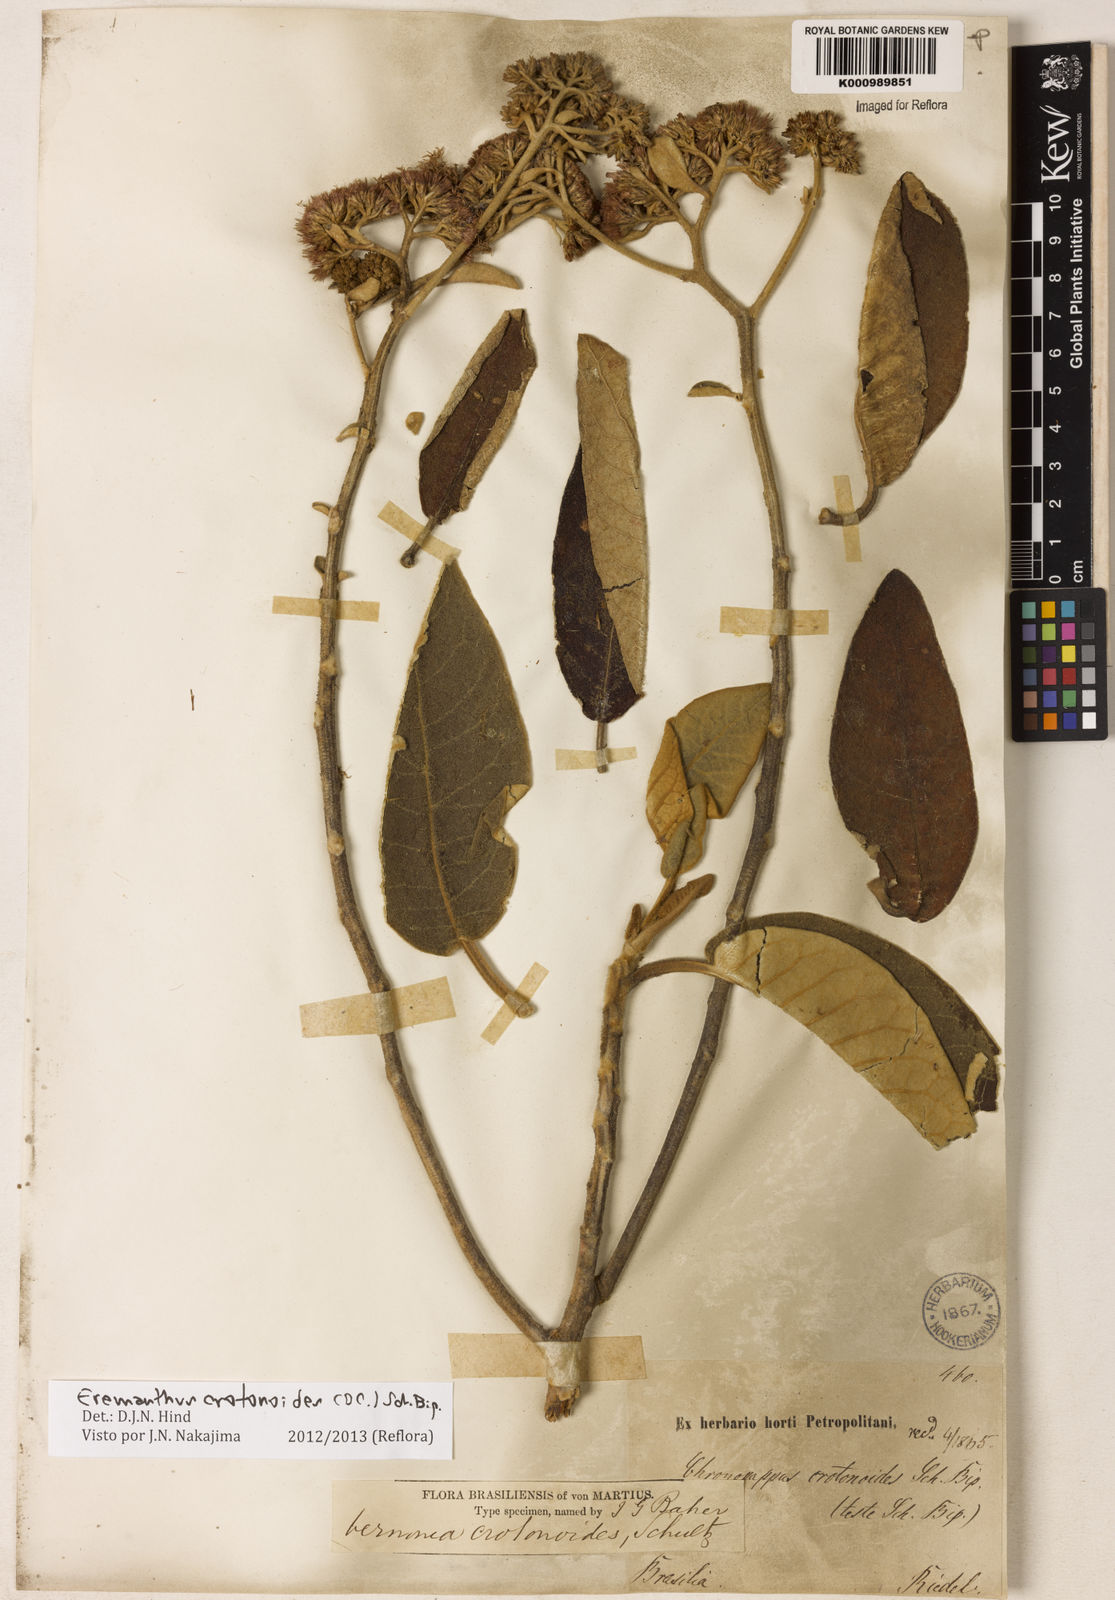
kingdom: Plantae
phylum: Tracheophyta
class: Magnoliopsida
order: Asterales
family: Asteraceae
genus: Eremanthus
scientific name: Eremanthus crotonoides
